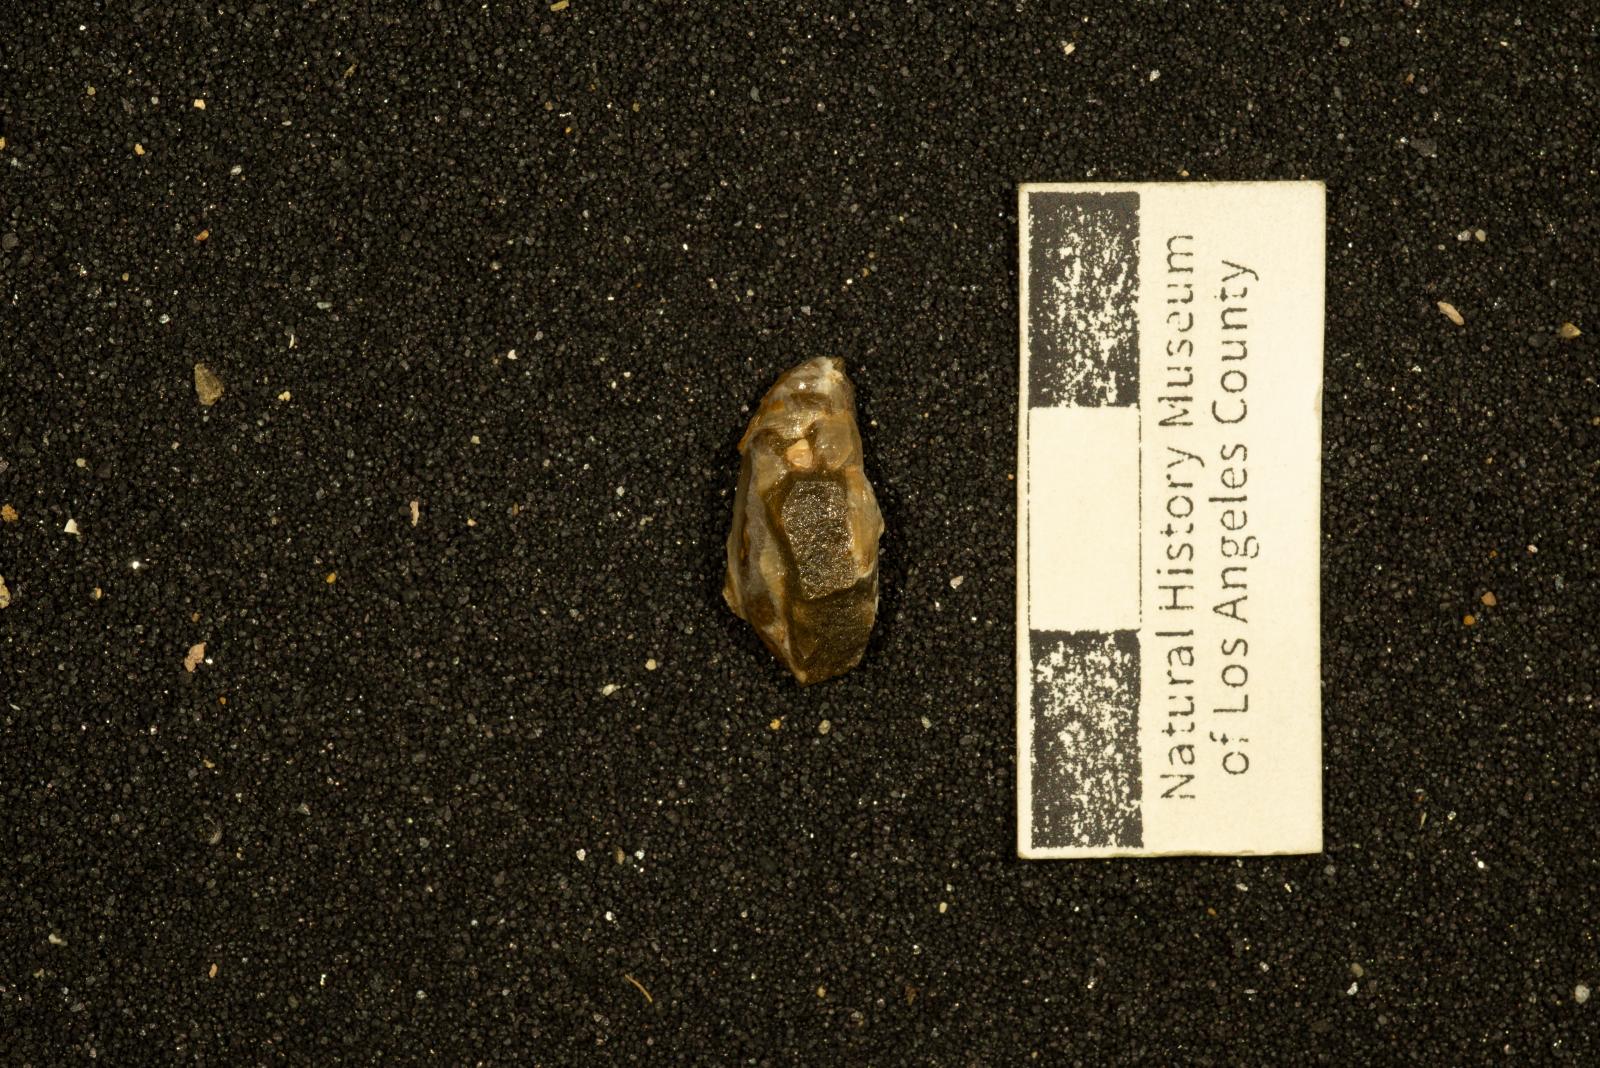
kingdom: Animalia
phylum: Mollusca
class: Gastropoda
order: Cephalaspidea
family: Acteonidae
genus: Nonacteonina
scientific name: Nonacteonina
